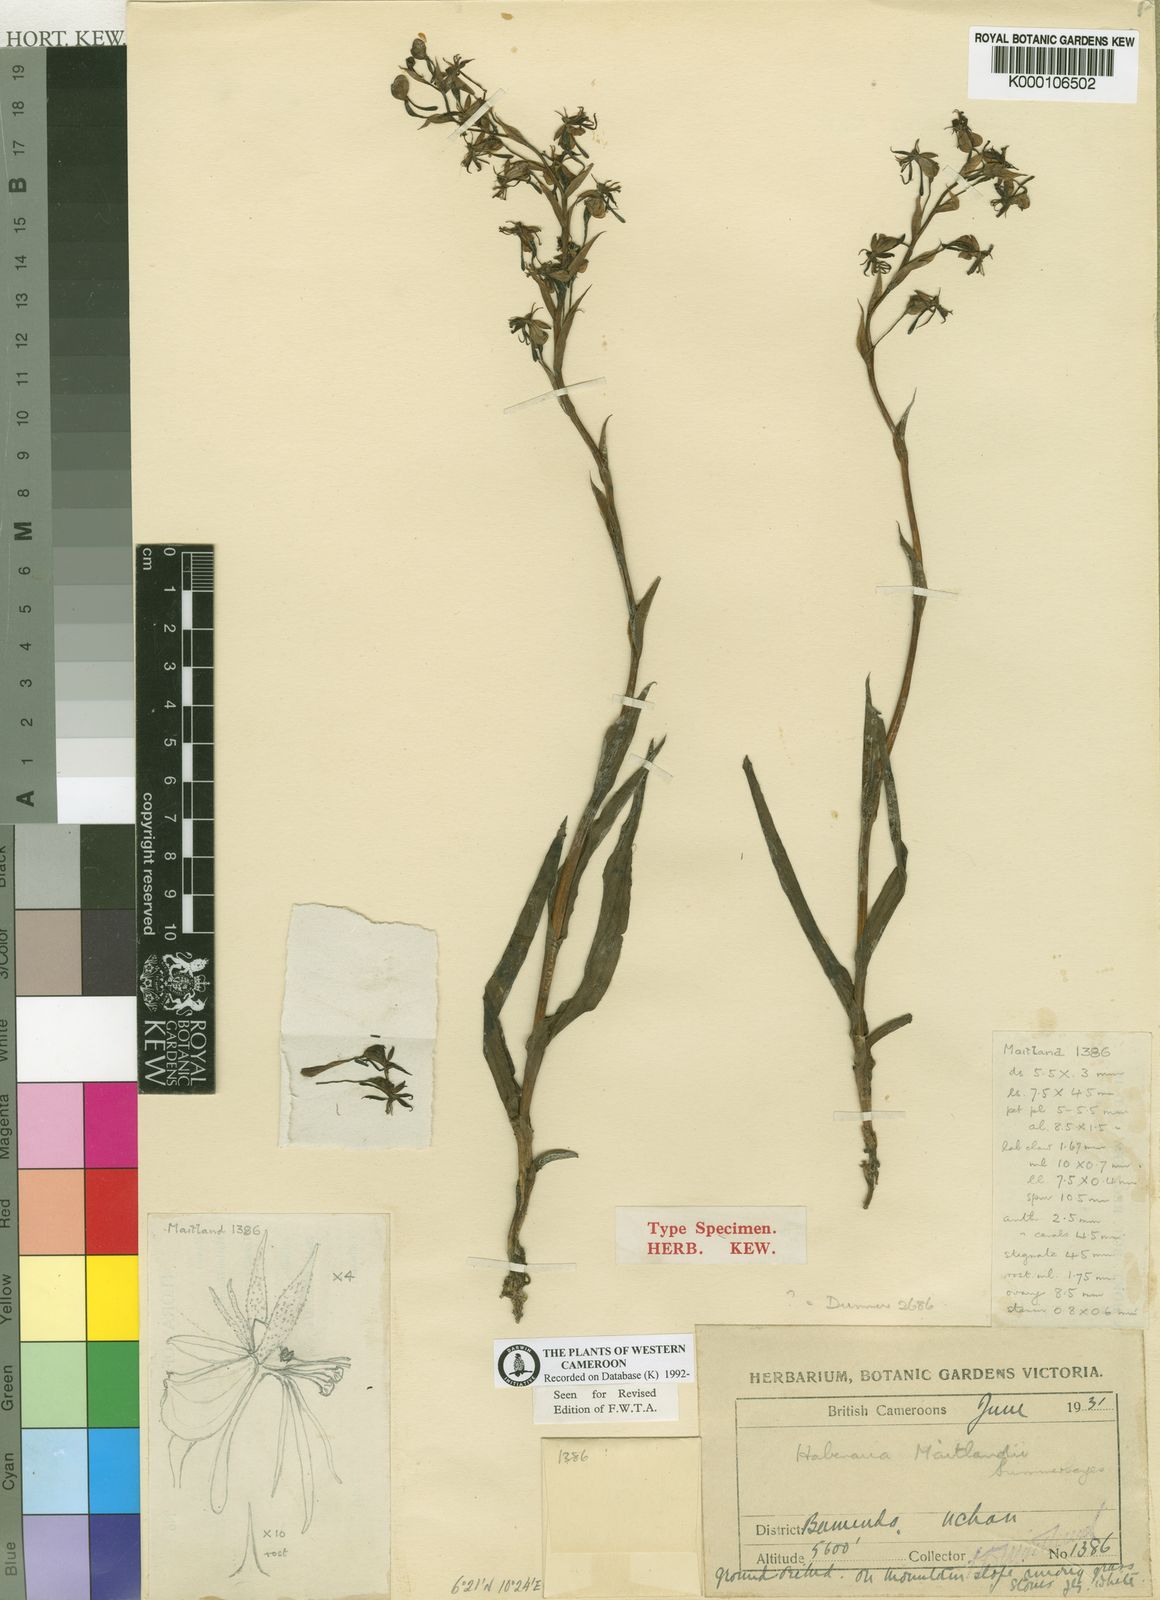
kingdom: Plantae
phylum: Tracheophyta
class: Liliopsida
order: Asparagales
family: Orchidaceae
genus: Habenaria
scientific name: Habenaria maitlandii
